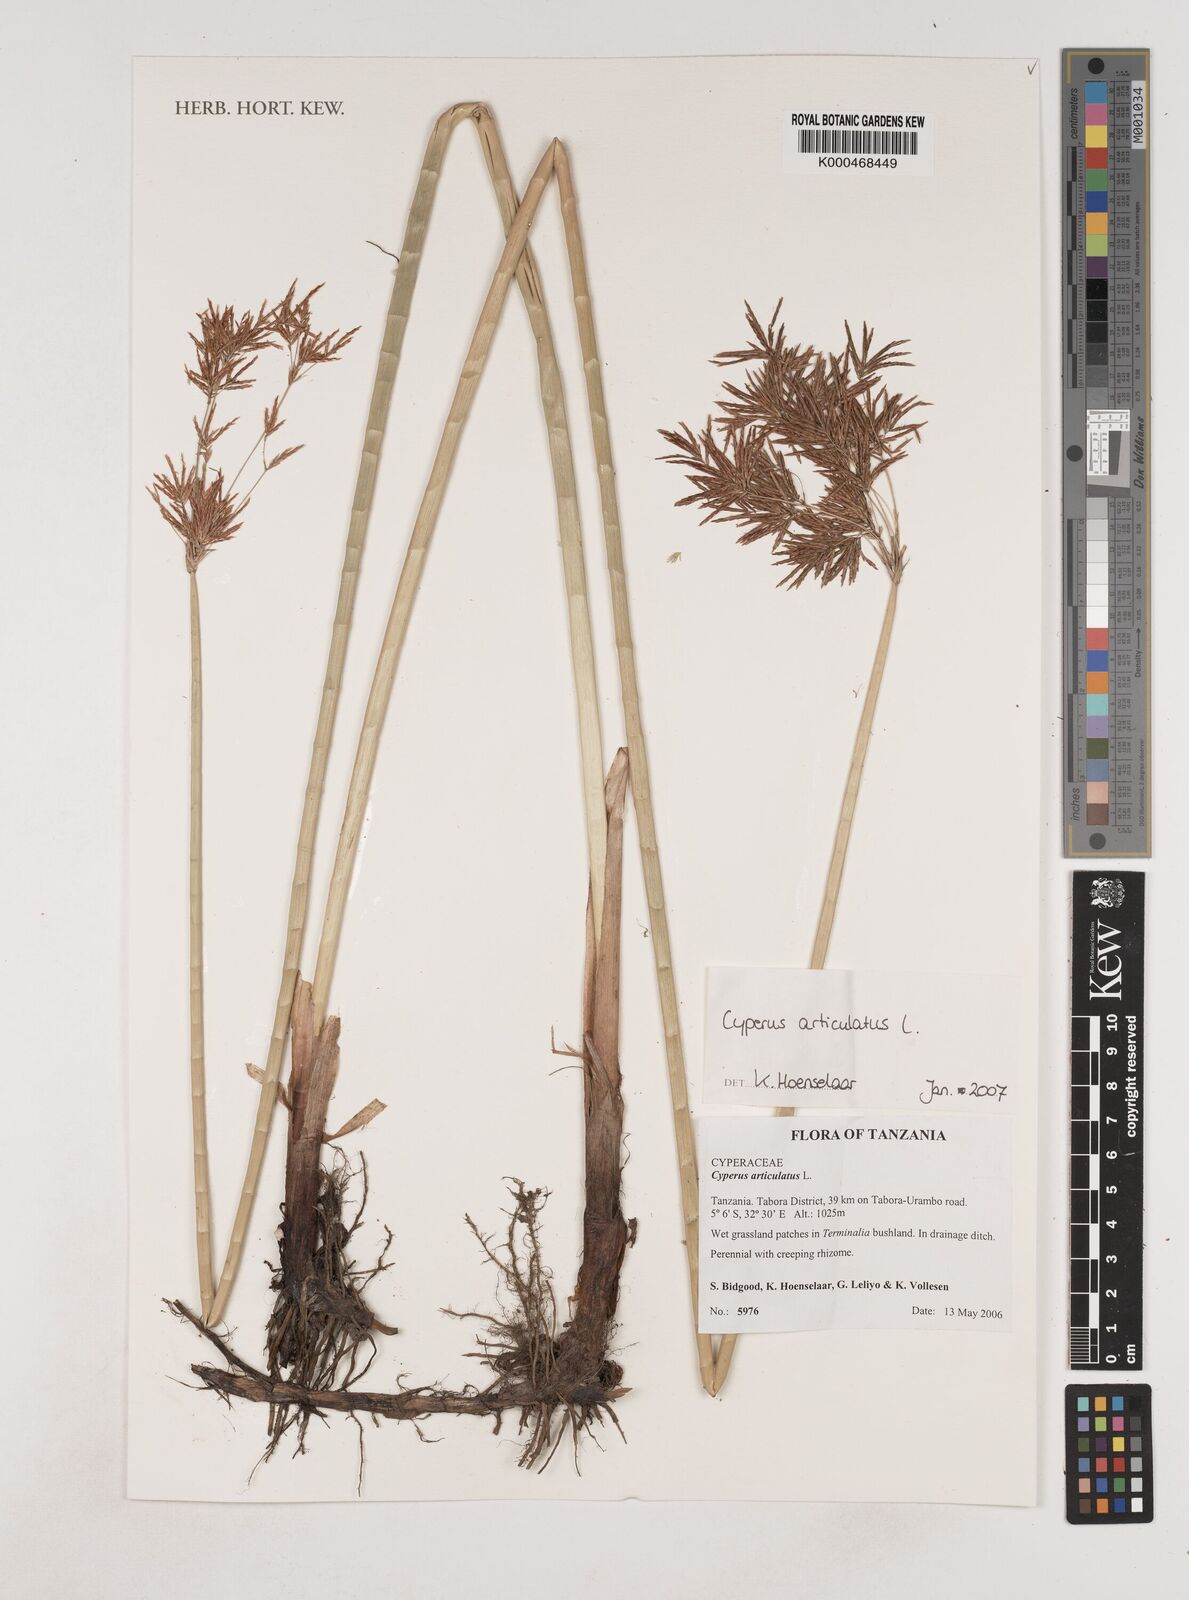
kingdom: Plantae
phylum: Tracheophyta
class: Liliopsida
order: Poales
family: Cyperaceae
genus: Cyperus
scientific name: Cyperus articulatus
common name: Jointed flatsedge
